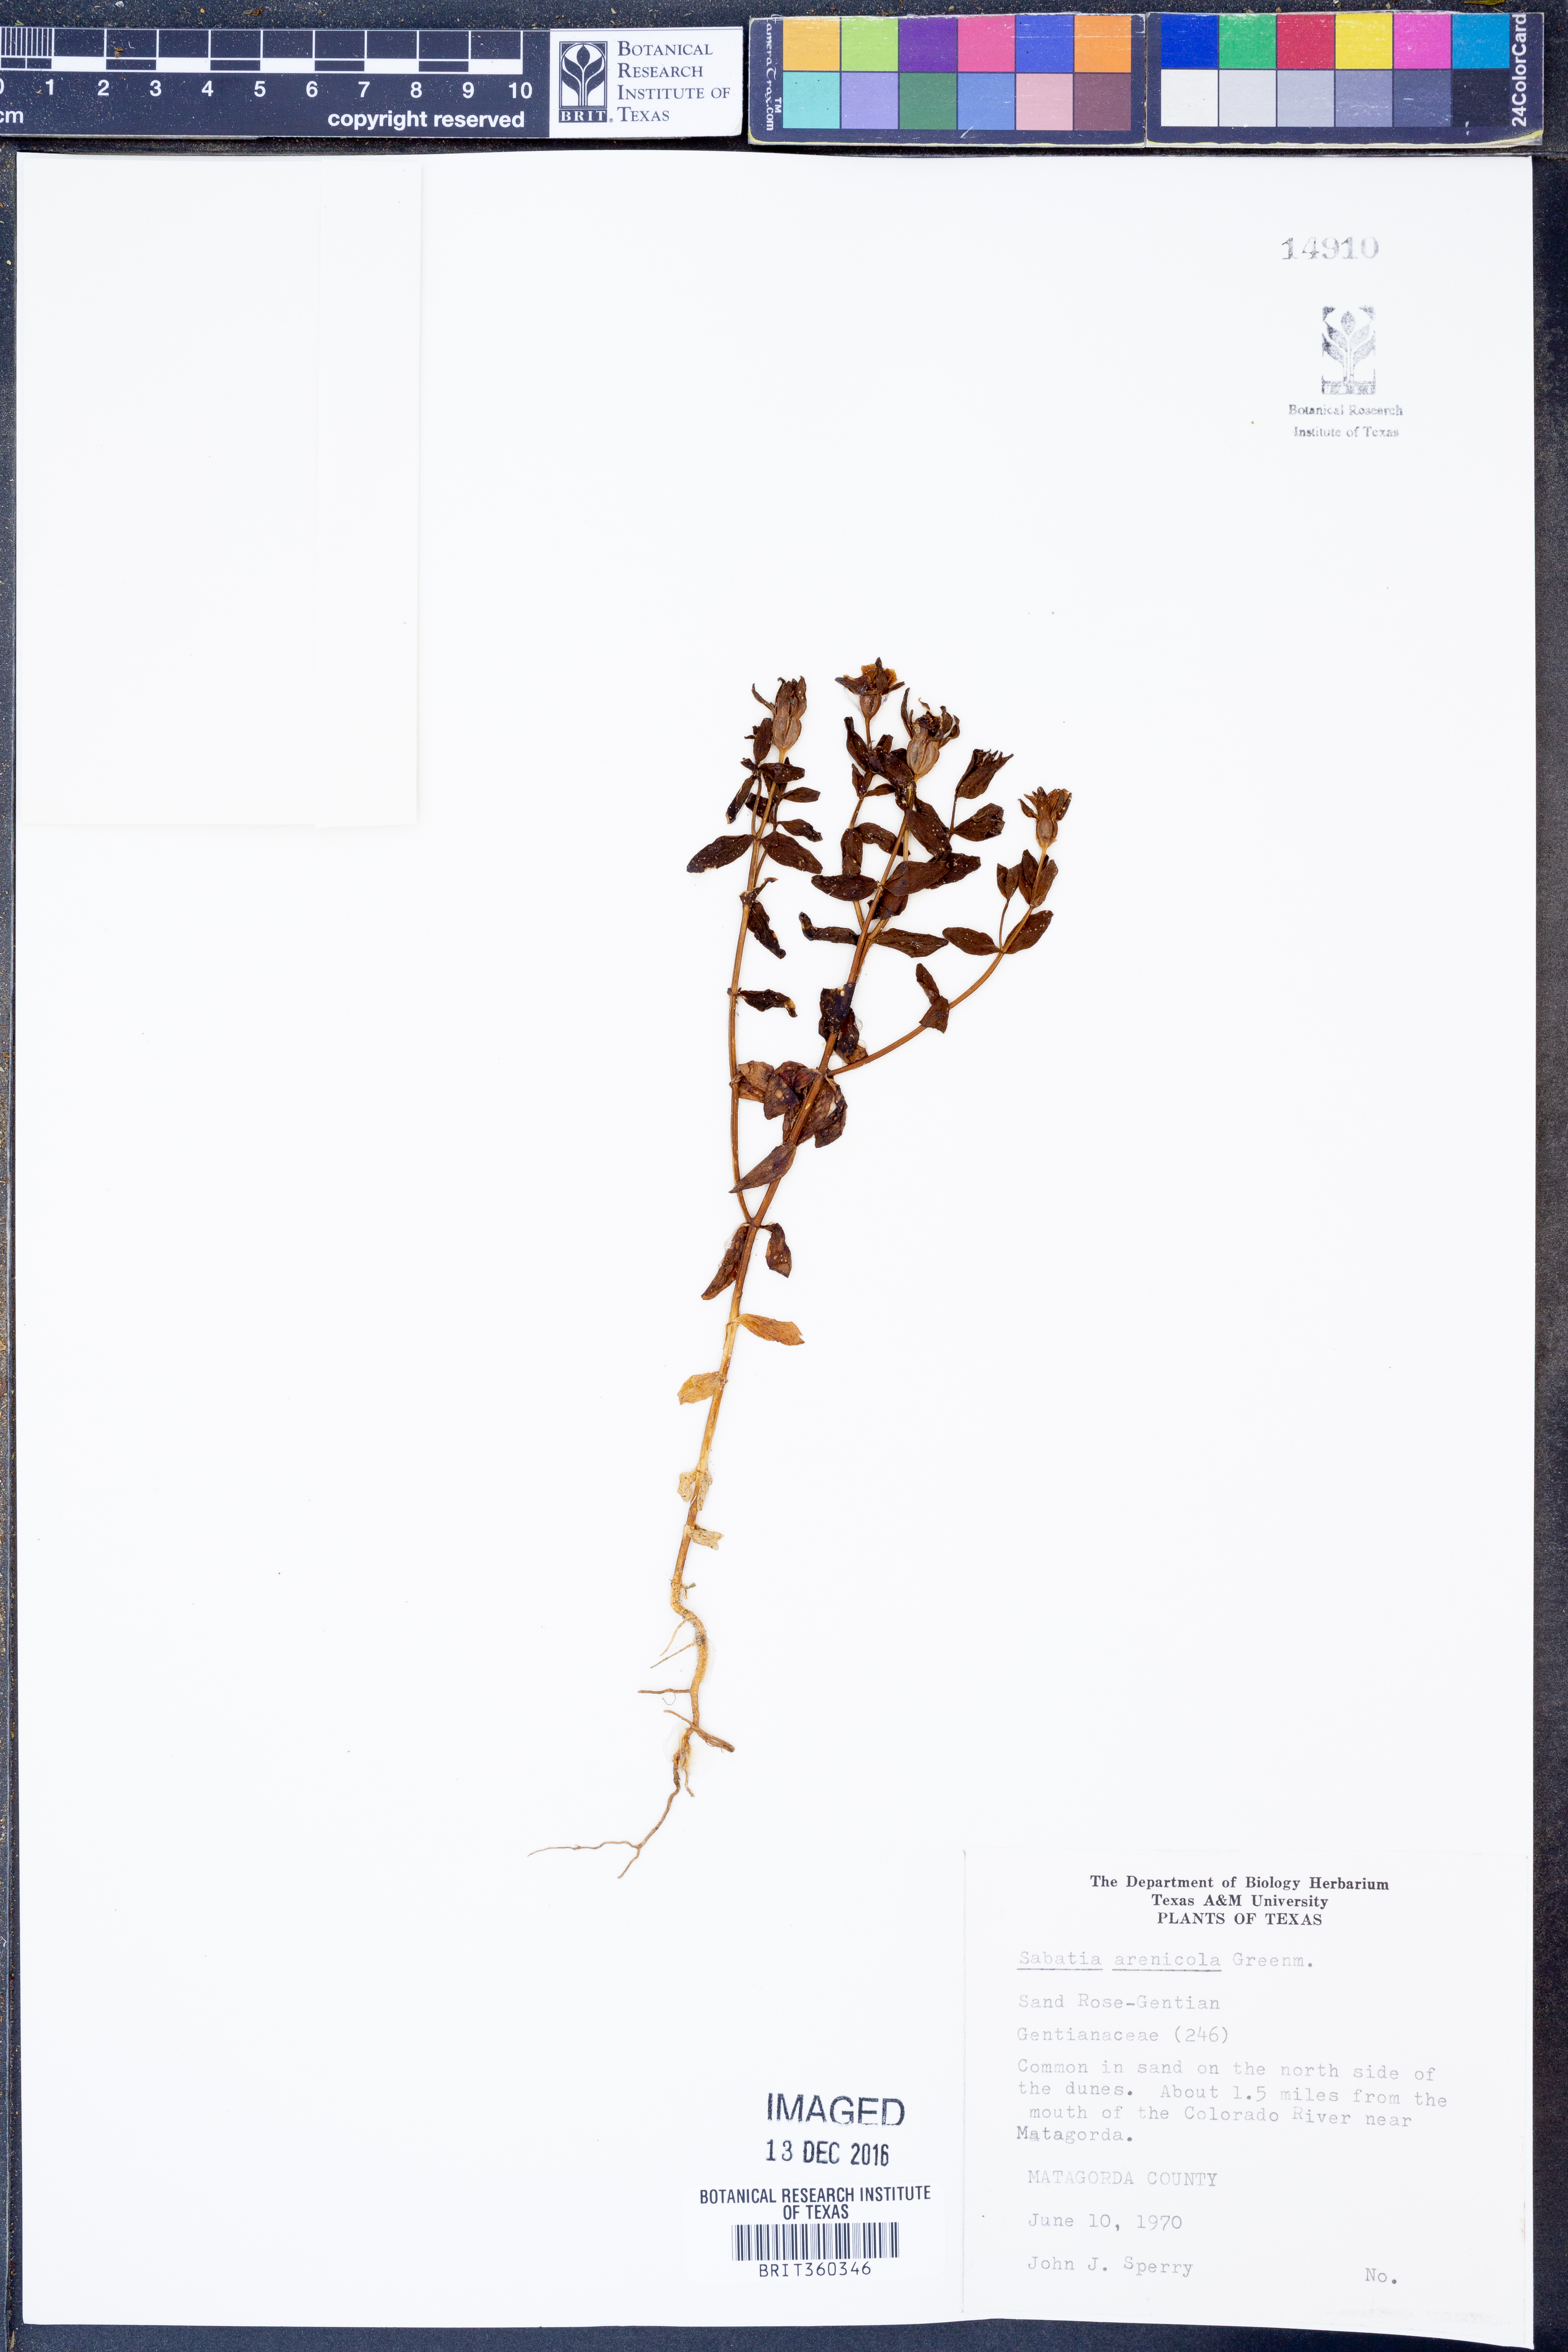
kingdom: Plantae
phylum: Tracheophyta
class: Magnoliopsida
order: Gentianales
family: Gentianaceae
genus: Sabatia
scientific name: Sabatia arenicola
